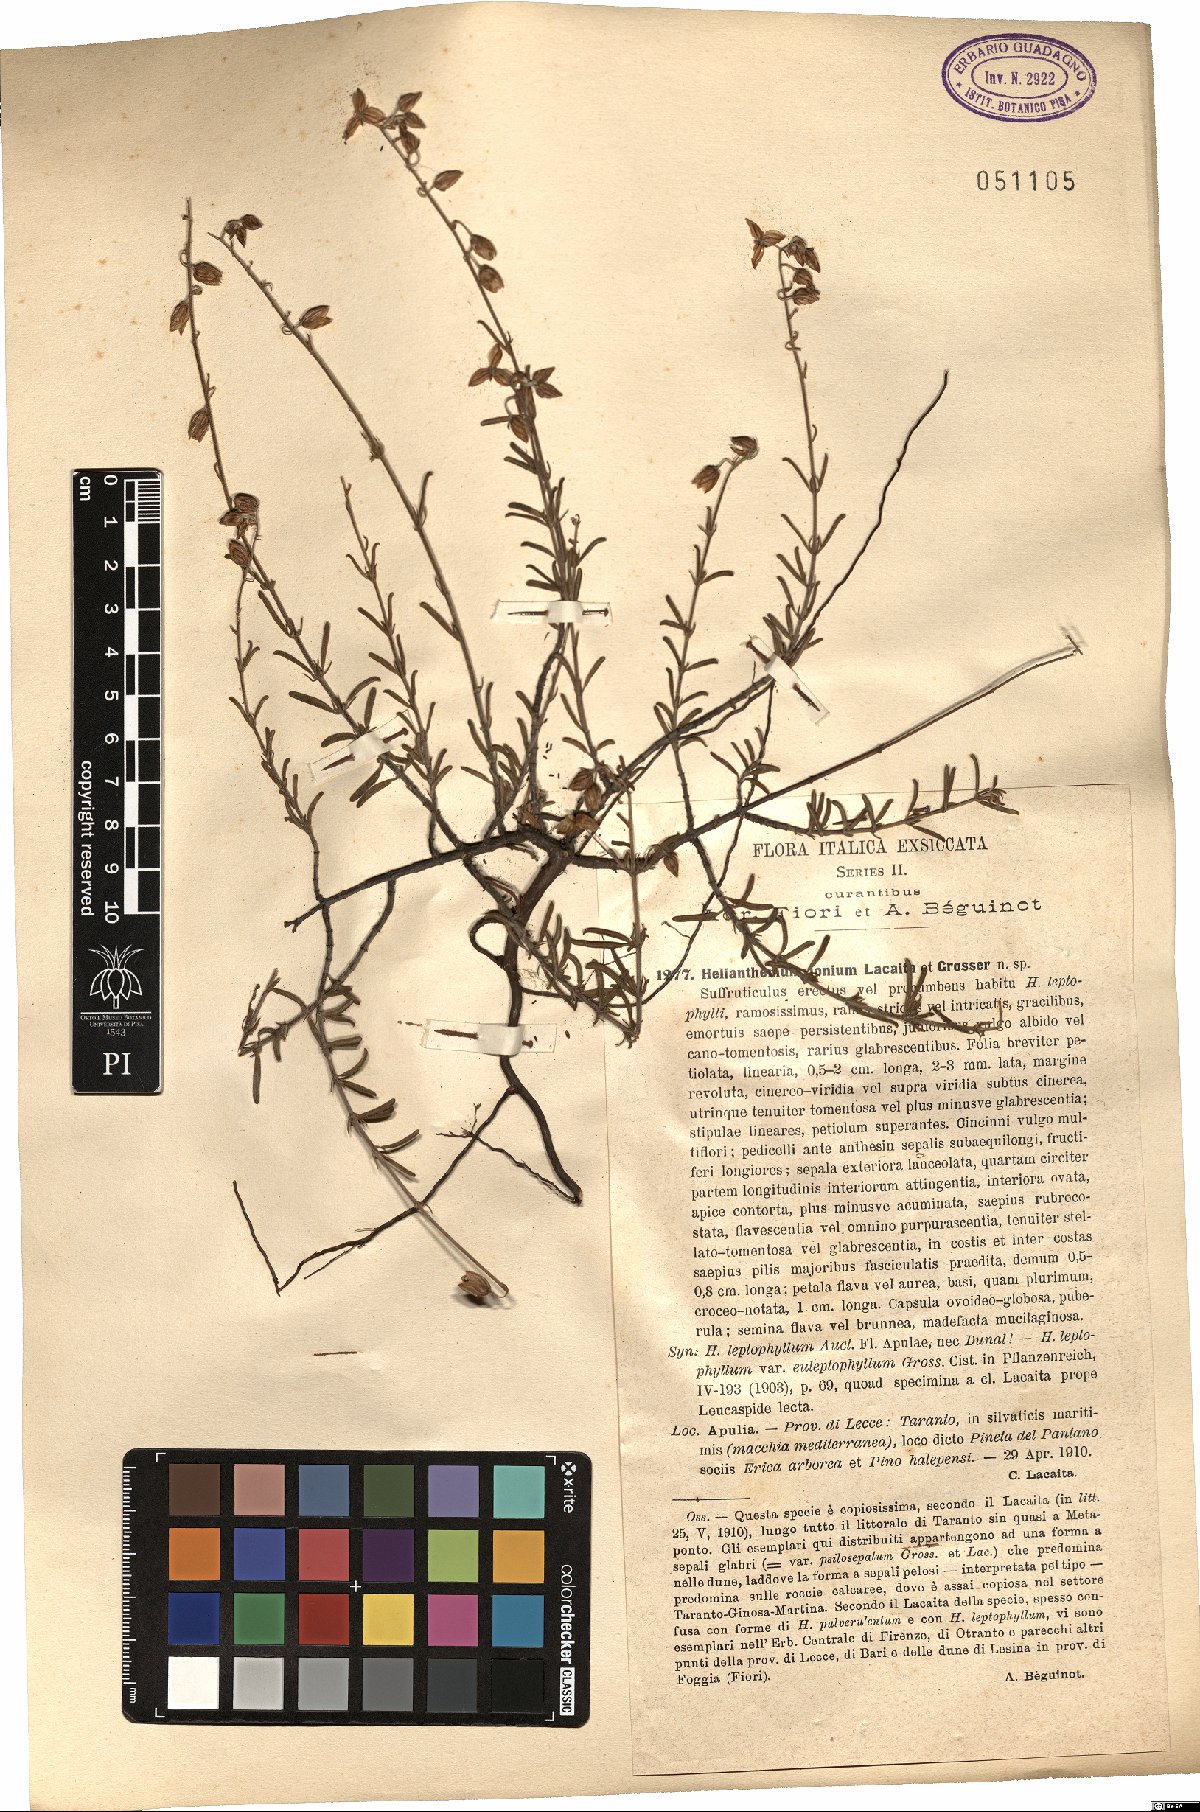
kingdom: Plantae
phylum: Tracheophyta
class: Magnoliopsida
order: Malvales
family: Cistaceae
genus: Helianthemum
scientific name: Helianthemum leptophyllum
